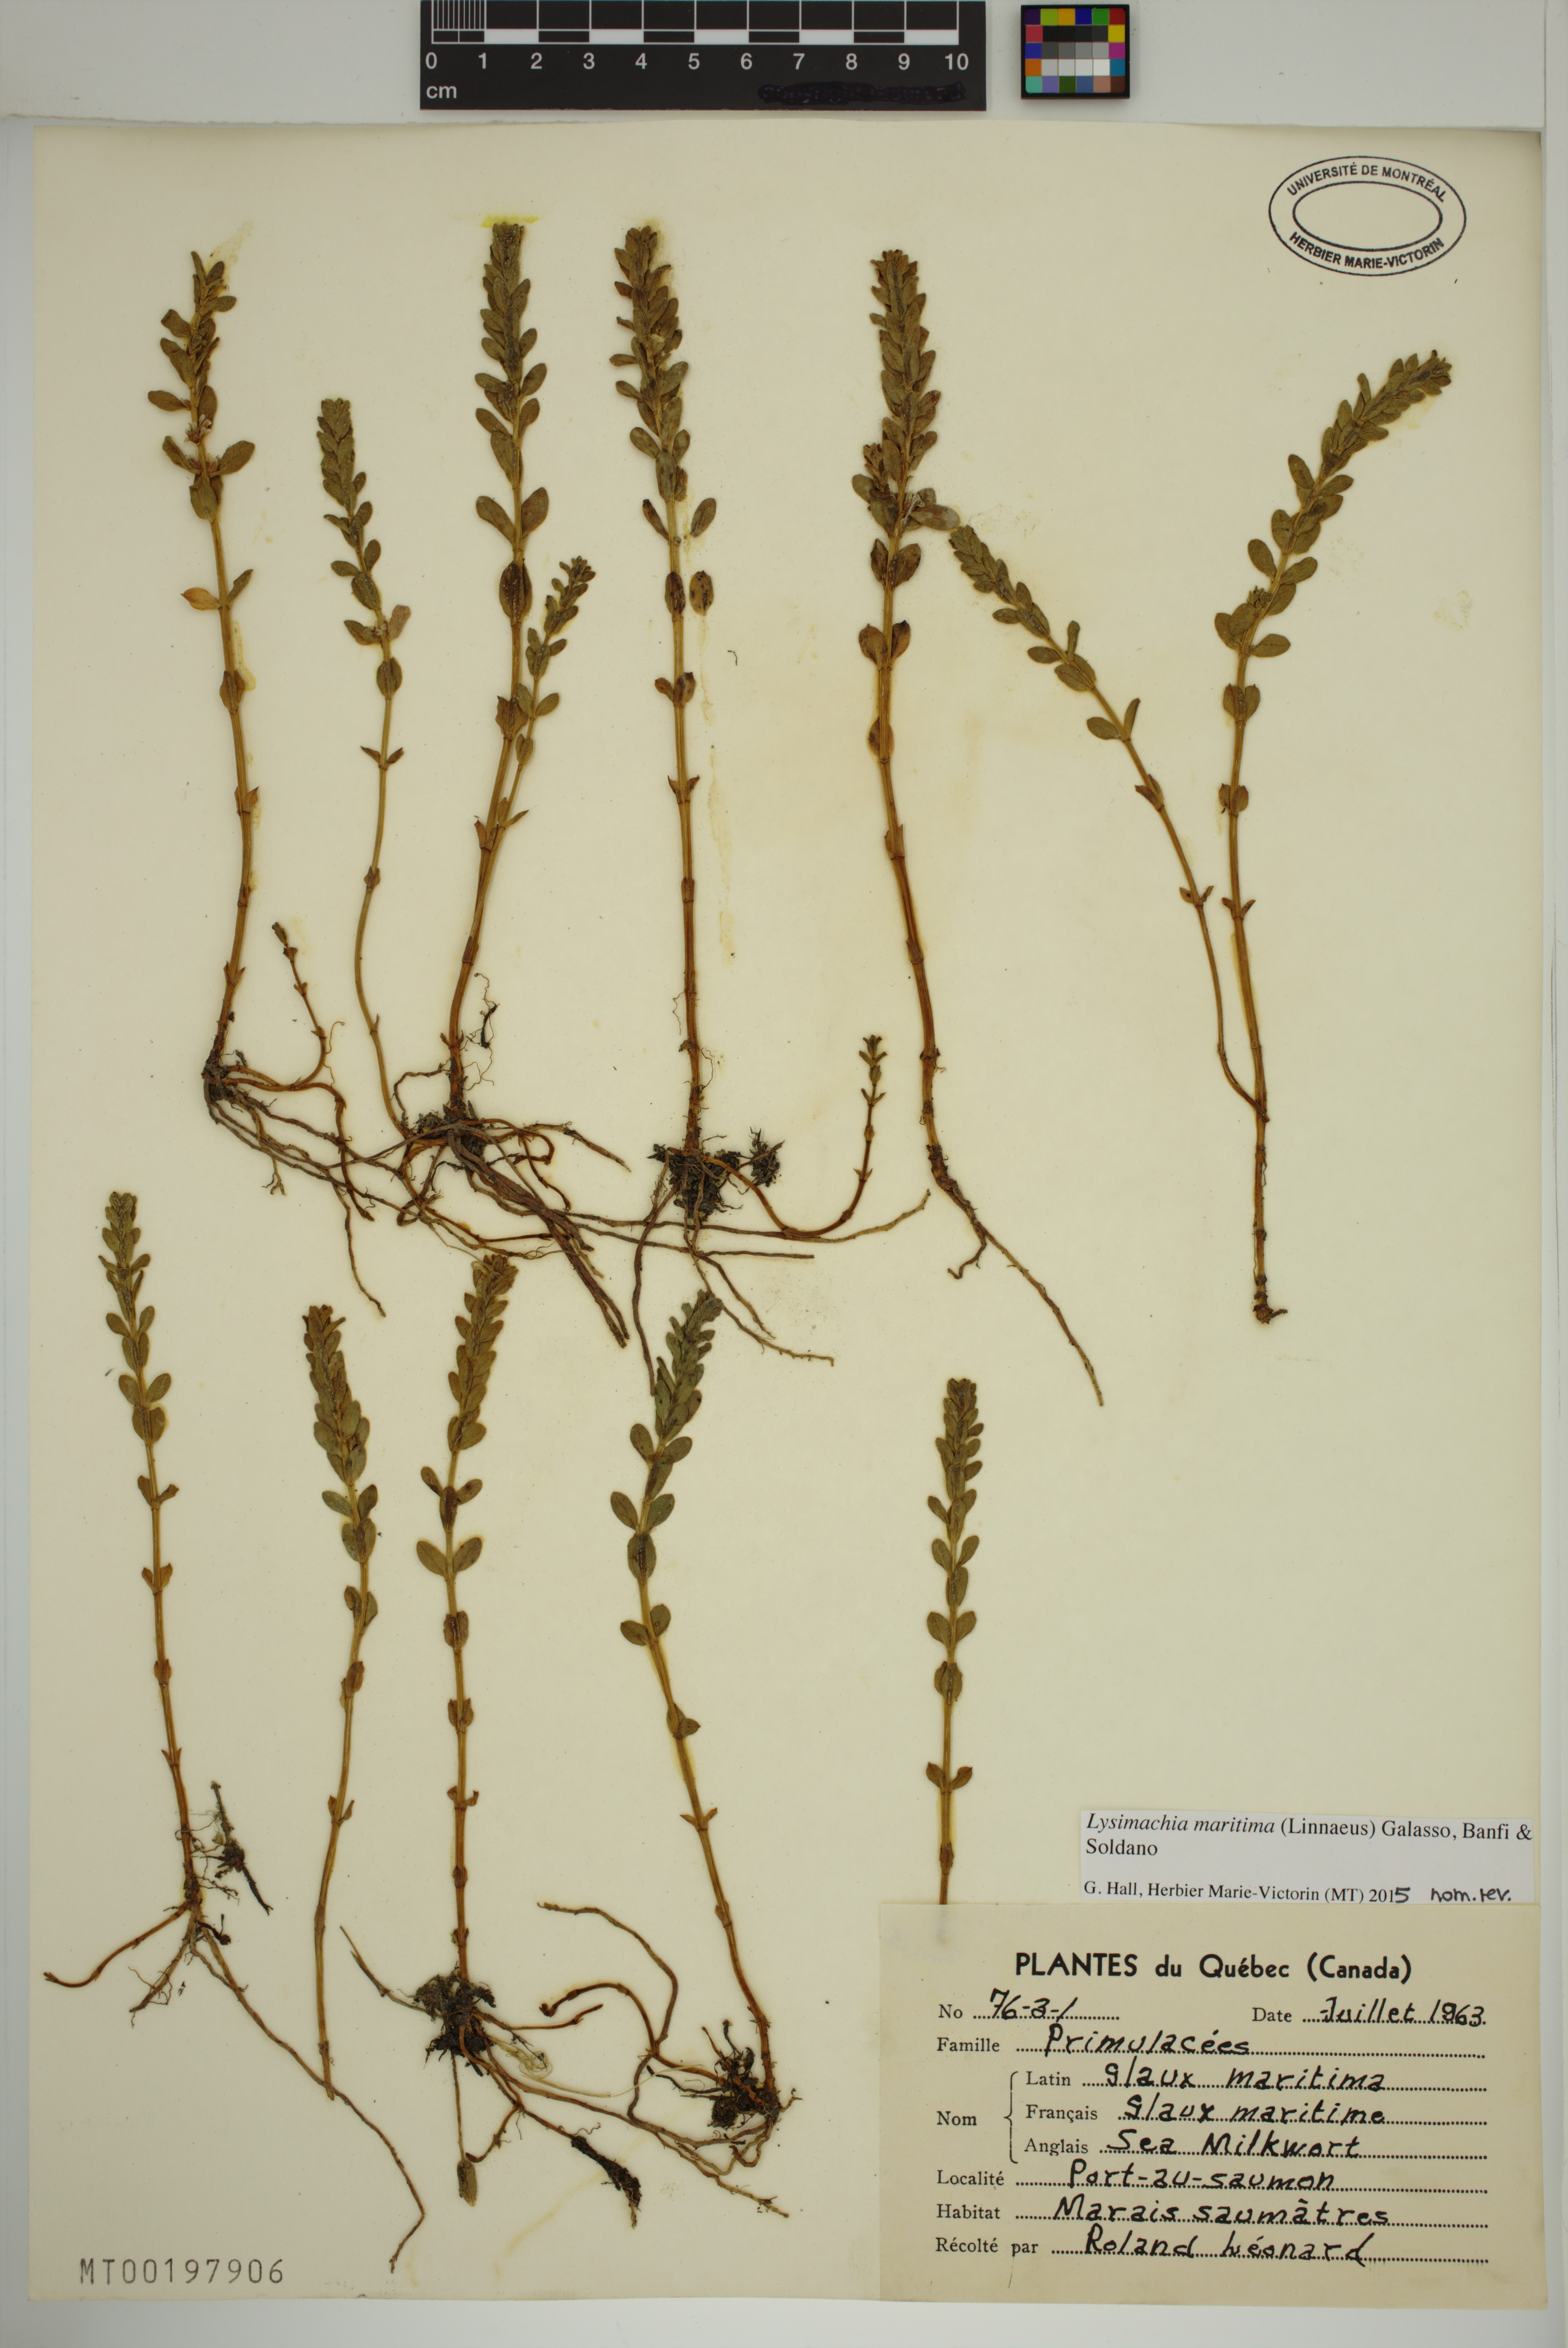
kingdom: Plantae
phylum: Tracheophyta
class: Magnoliopsida
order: Ericales
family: Primulaceae
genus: Lysimachia
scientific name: Lysimachia maritima
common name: Sea milkwort
